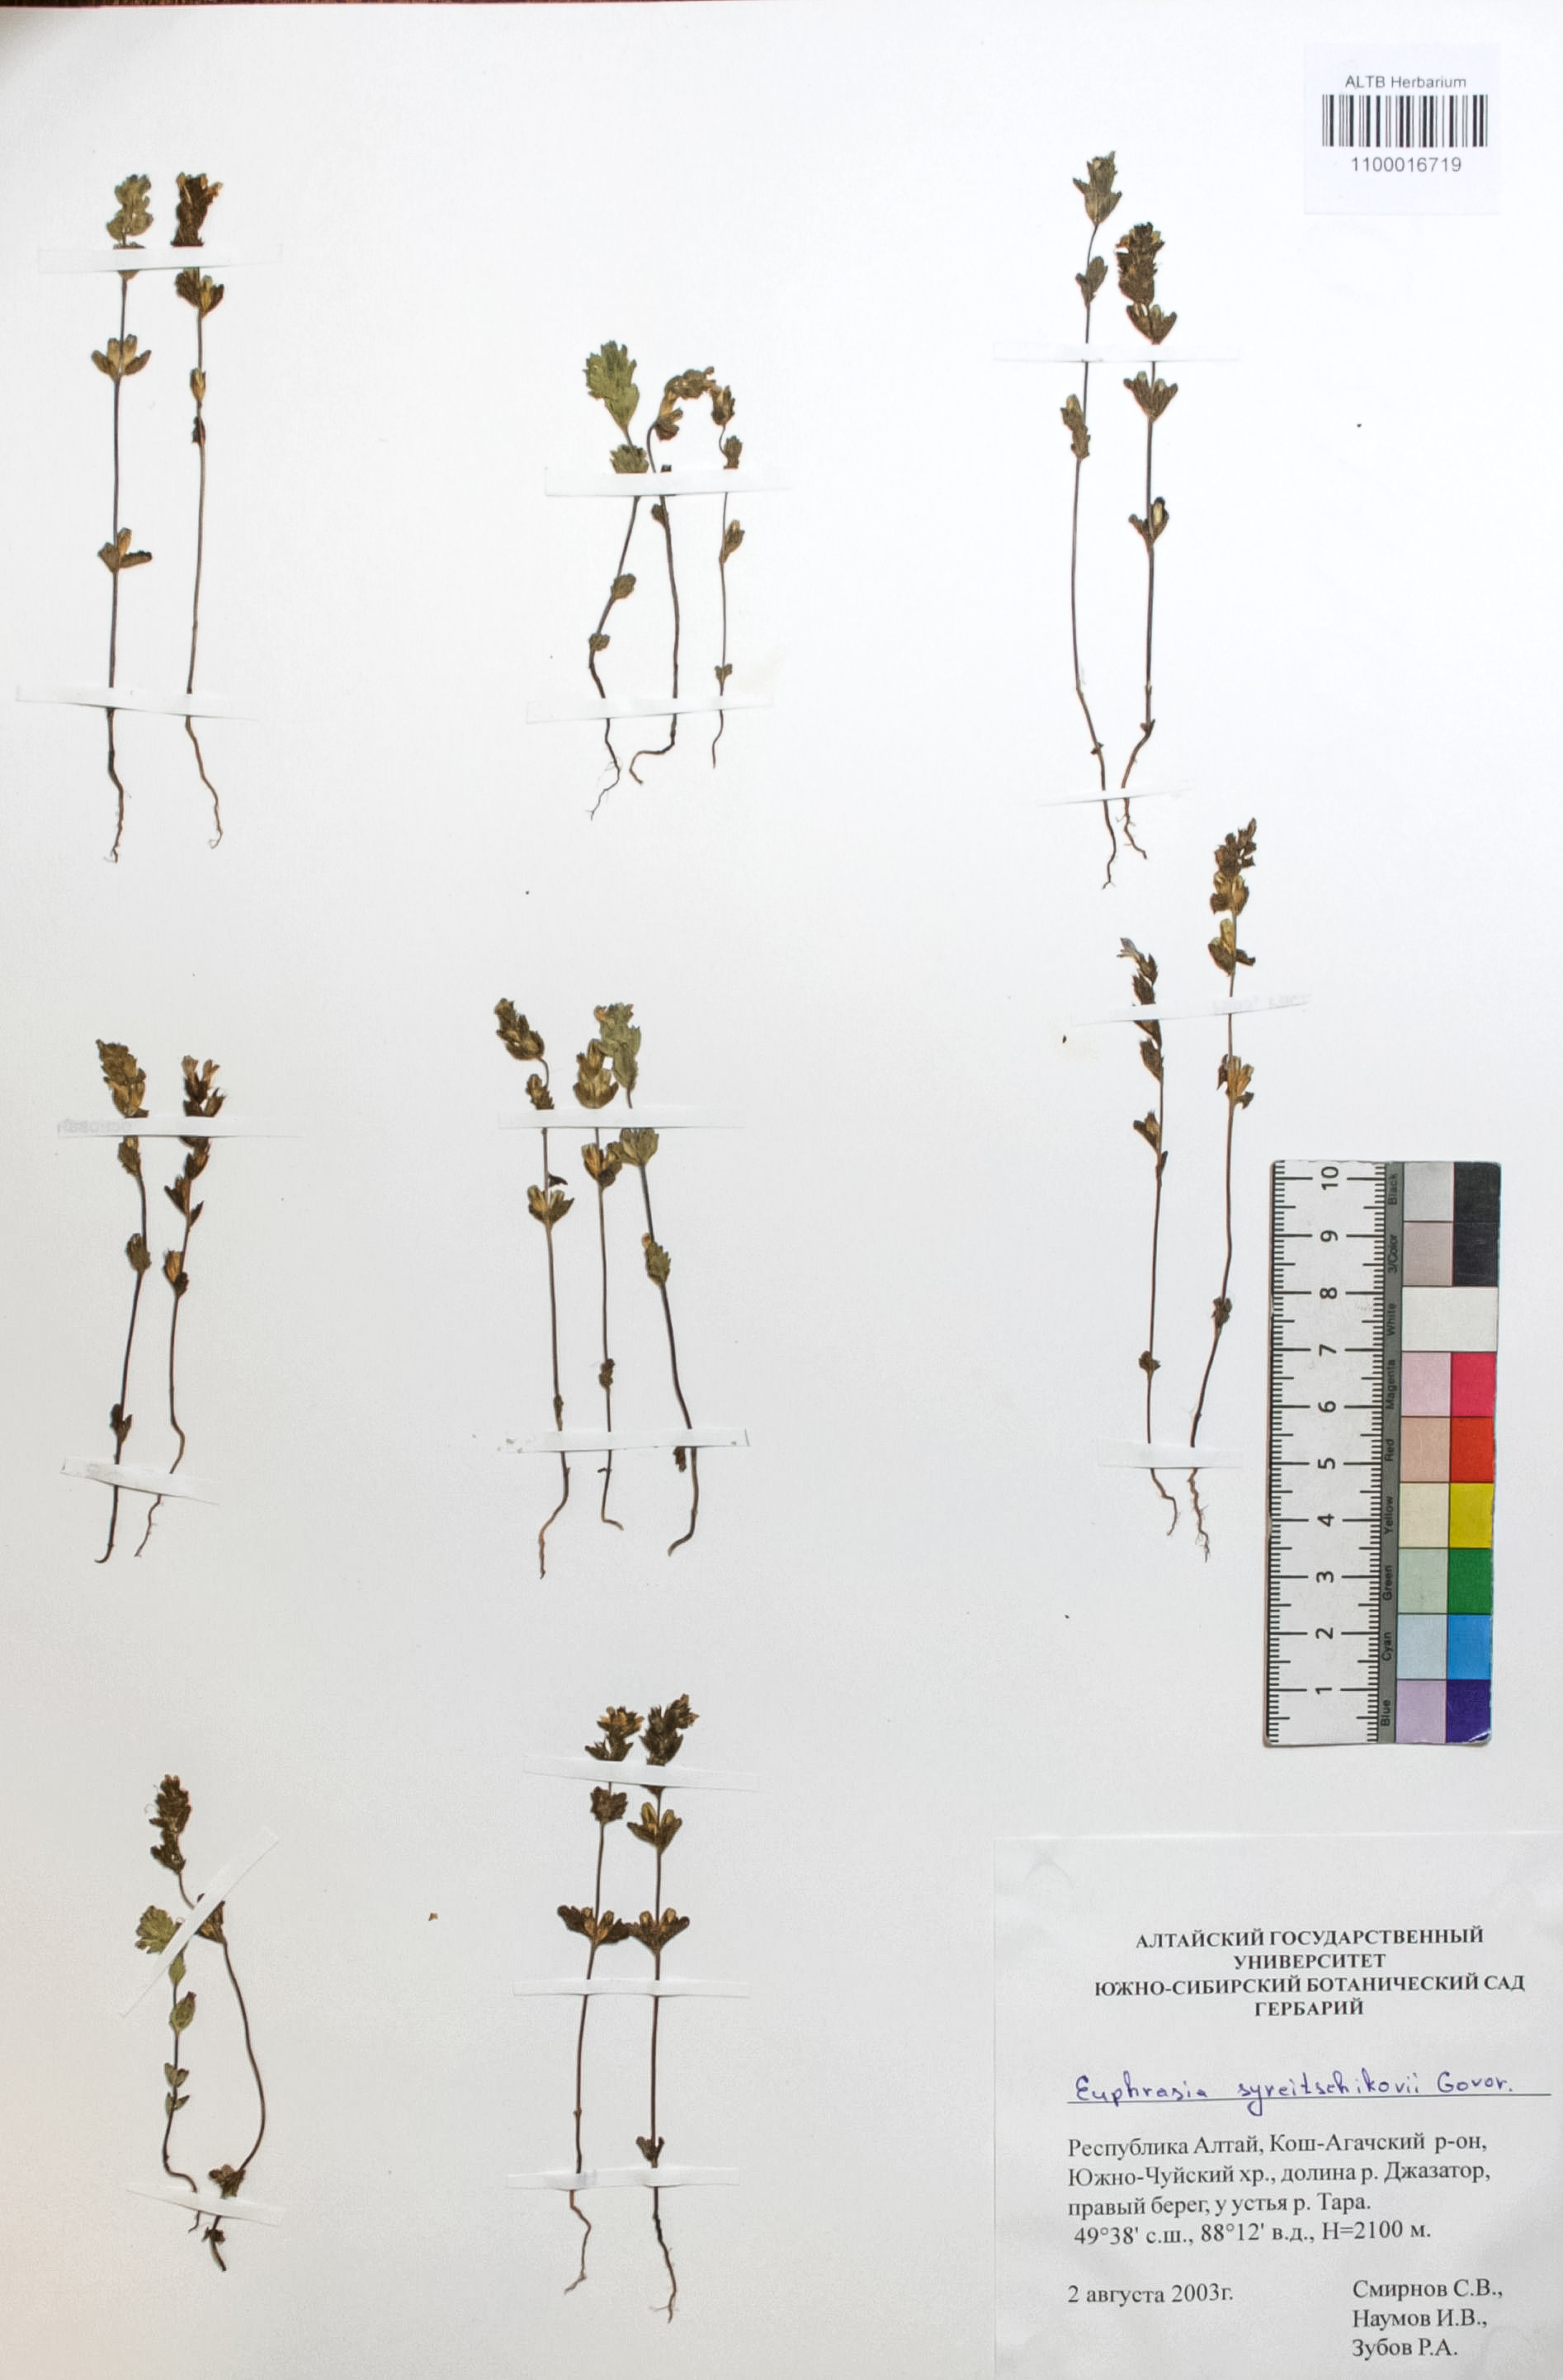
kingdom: Plantae
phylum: Tracheophyta
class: Magnoliopsida
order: Lamiales
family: Orobanchaceae
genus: Euphrasia
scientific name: Euphrasia syreitschikovii
